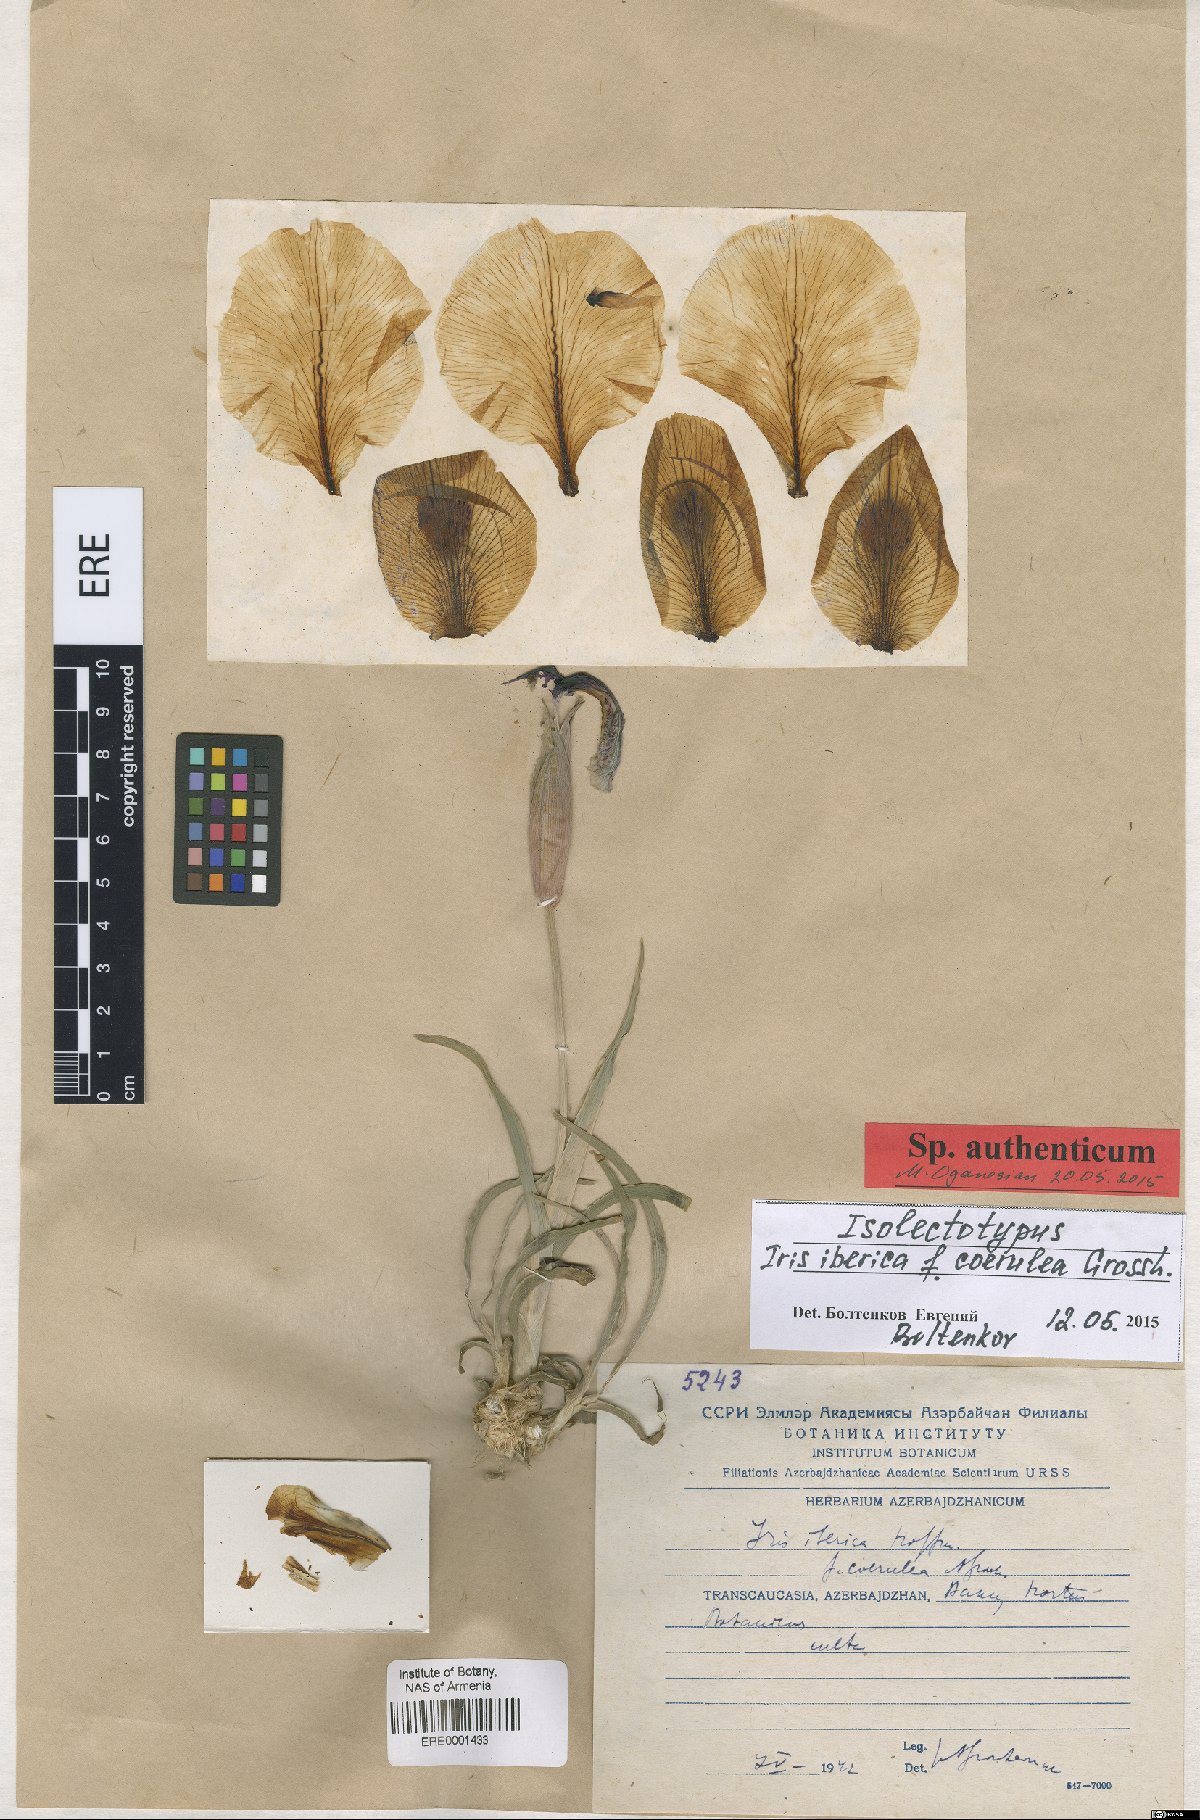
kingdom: Plantae
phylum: Tracheophyta
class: Liliopsida
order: Asparagales
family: Iridaceae
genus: Iris
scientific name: Iris iberica
